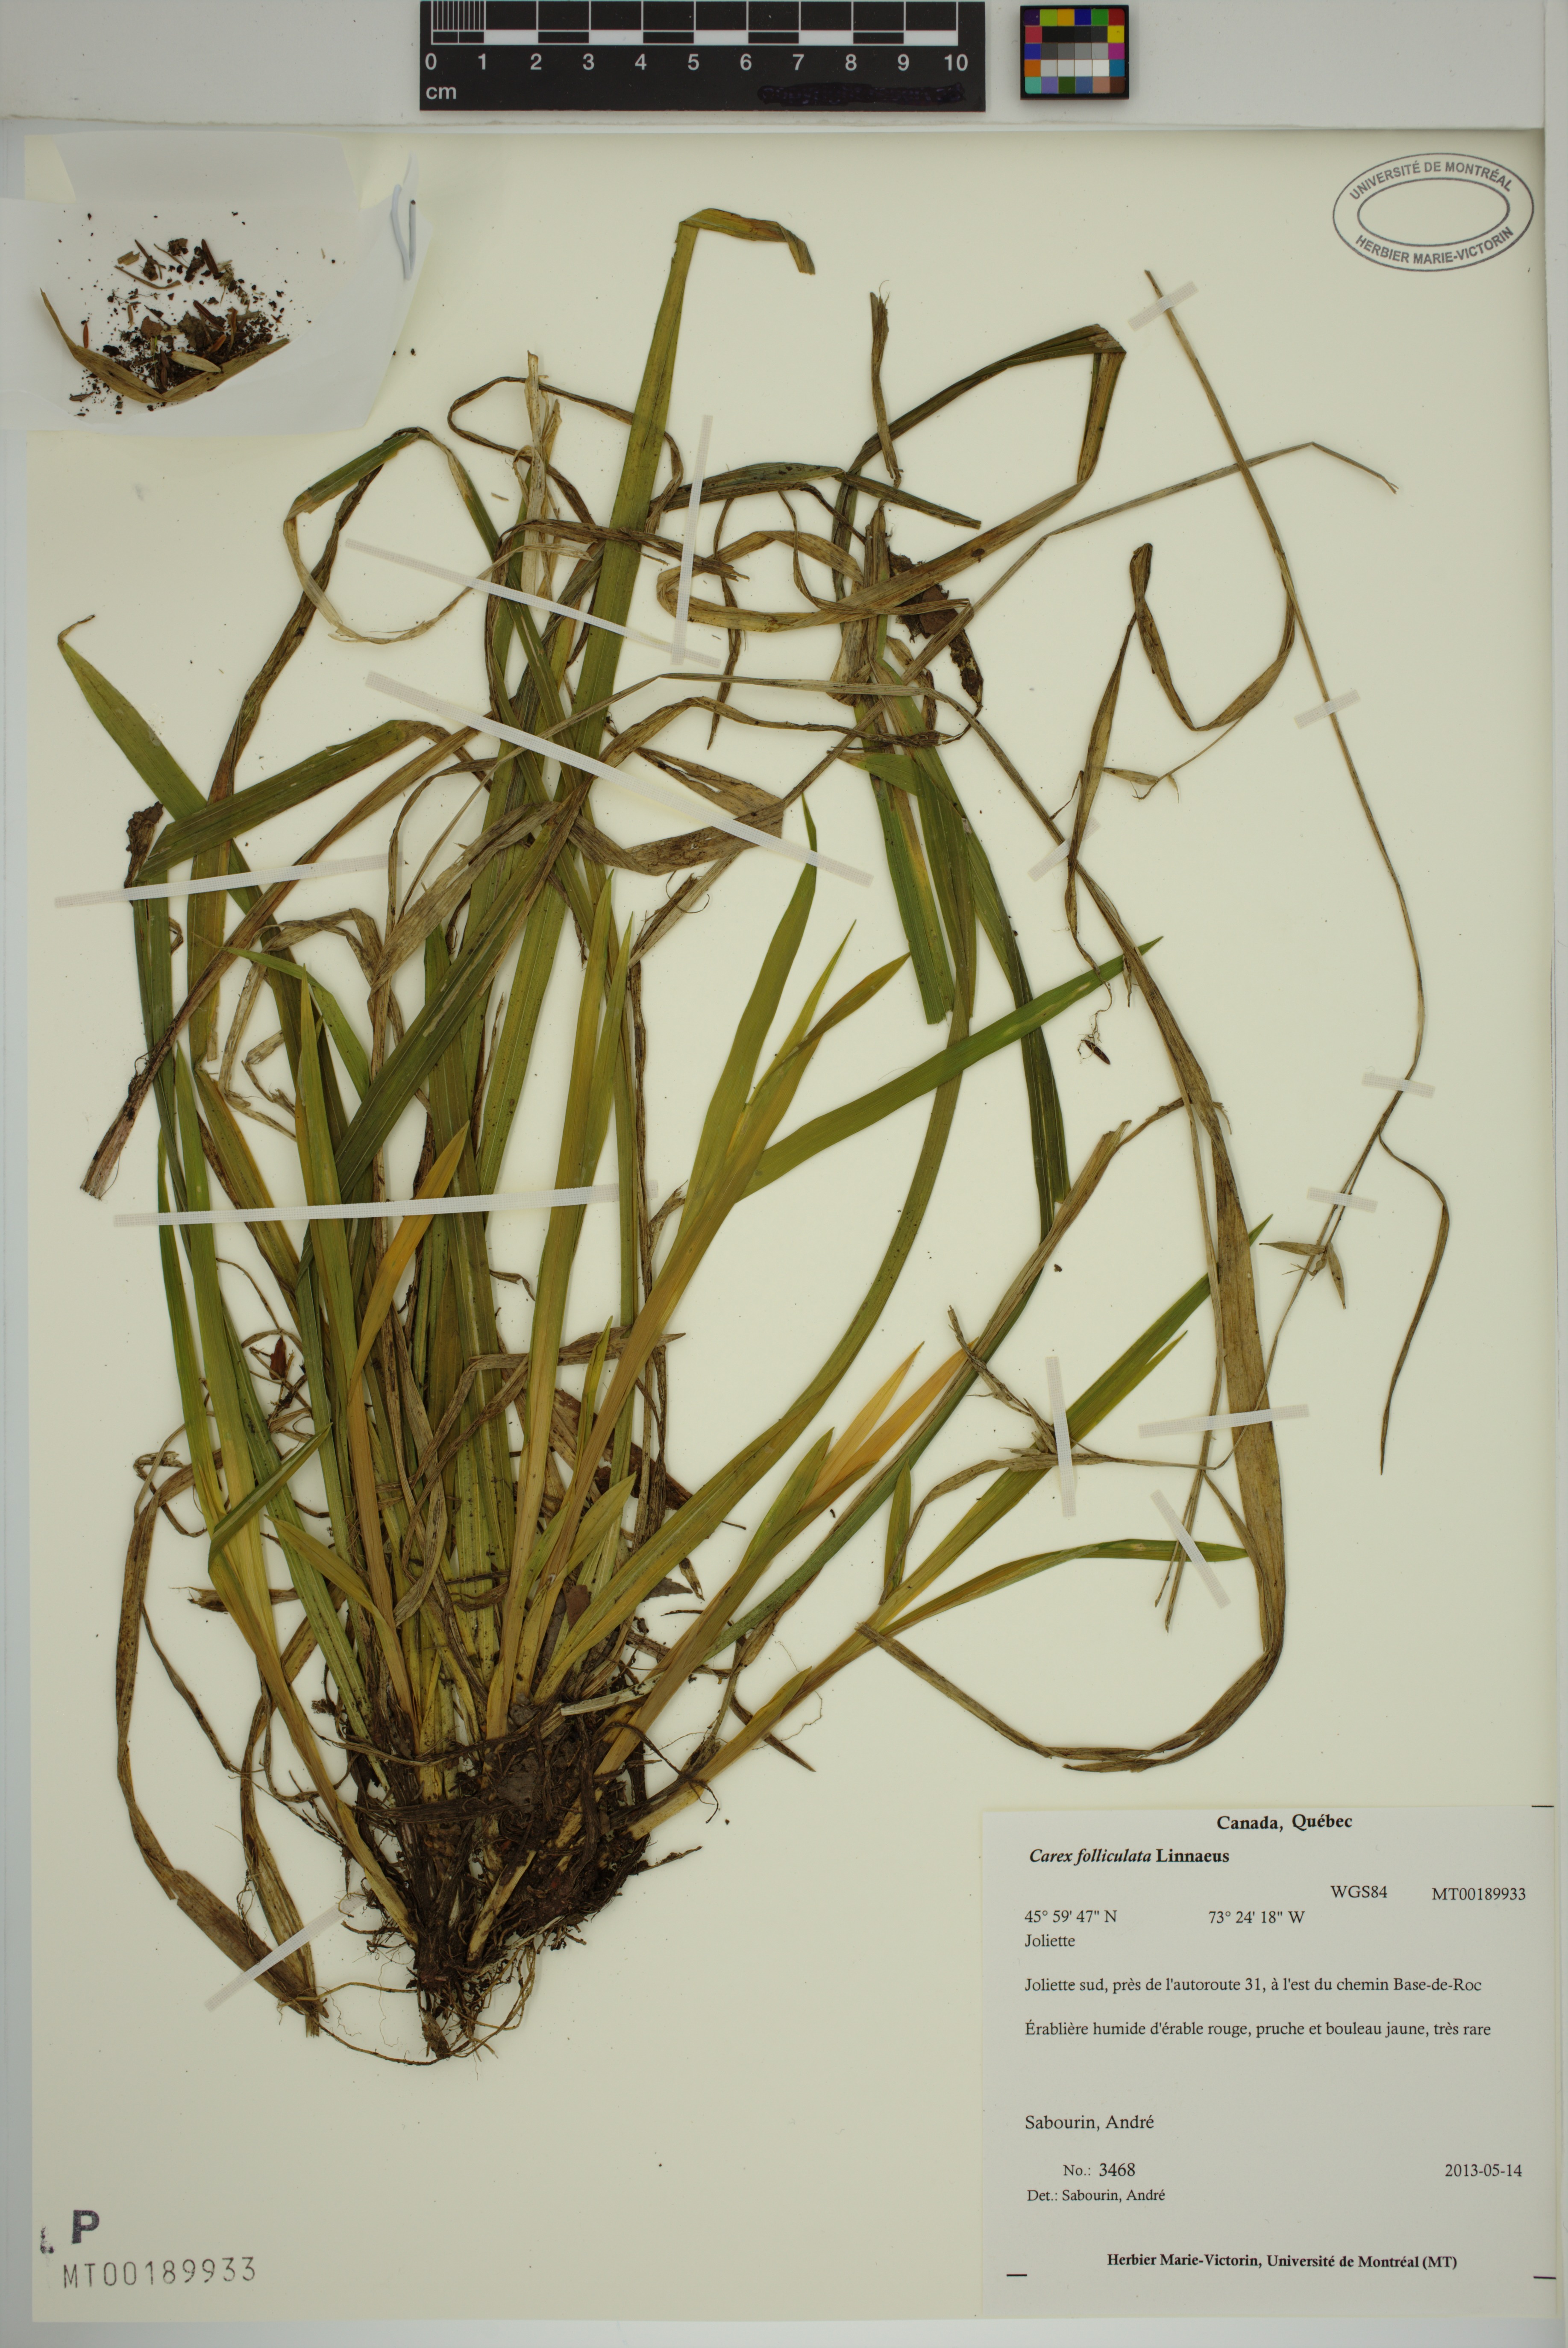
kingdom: Plantae
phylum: Tracheophyta
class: Liliopsida
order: Poales
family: Cyperaceae
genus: Carex
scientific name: Carex folliculata
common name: Northern long sedge
